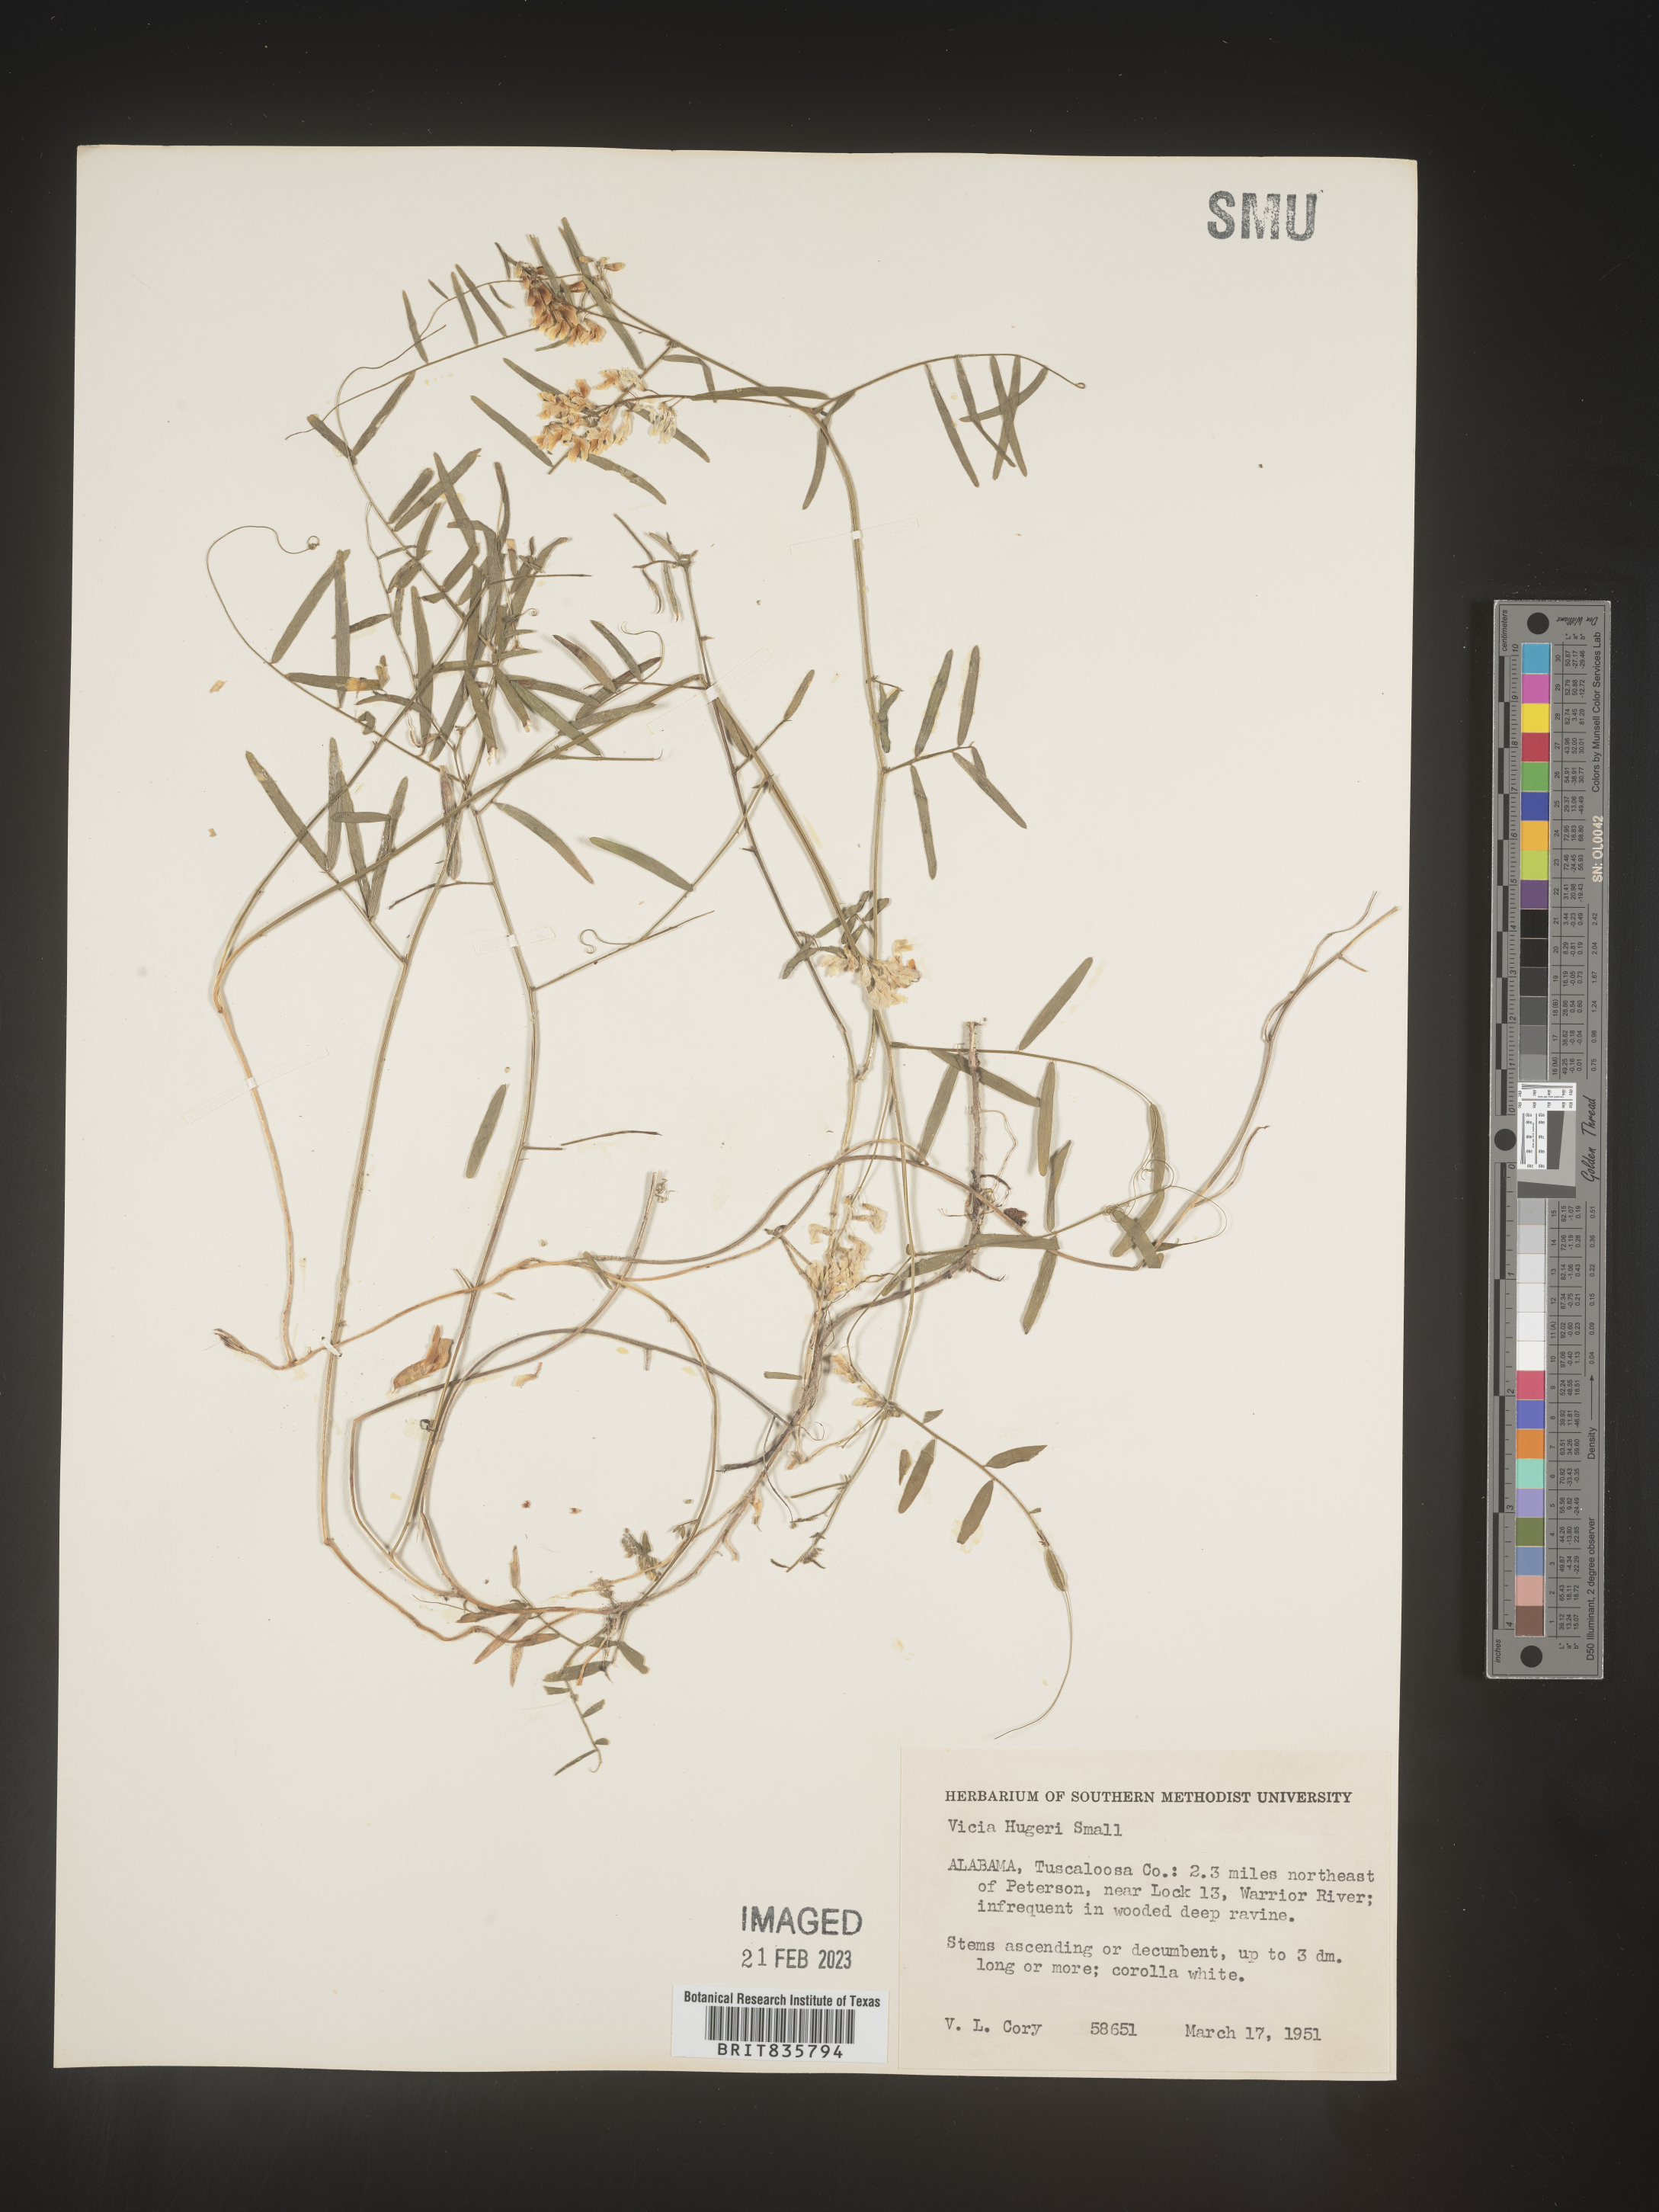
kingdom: Plantae
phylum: Tracheophyta
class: Magnoliopsida
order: Fabales
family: Fabaceae
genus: Vicia
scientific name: Vicia
